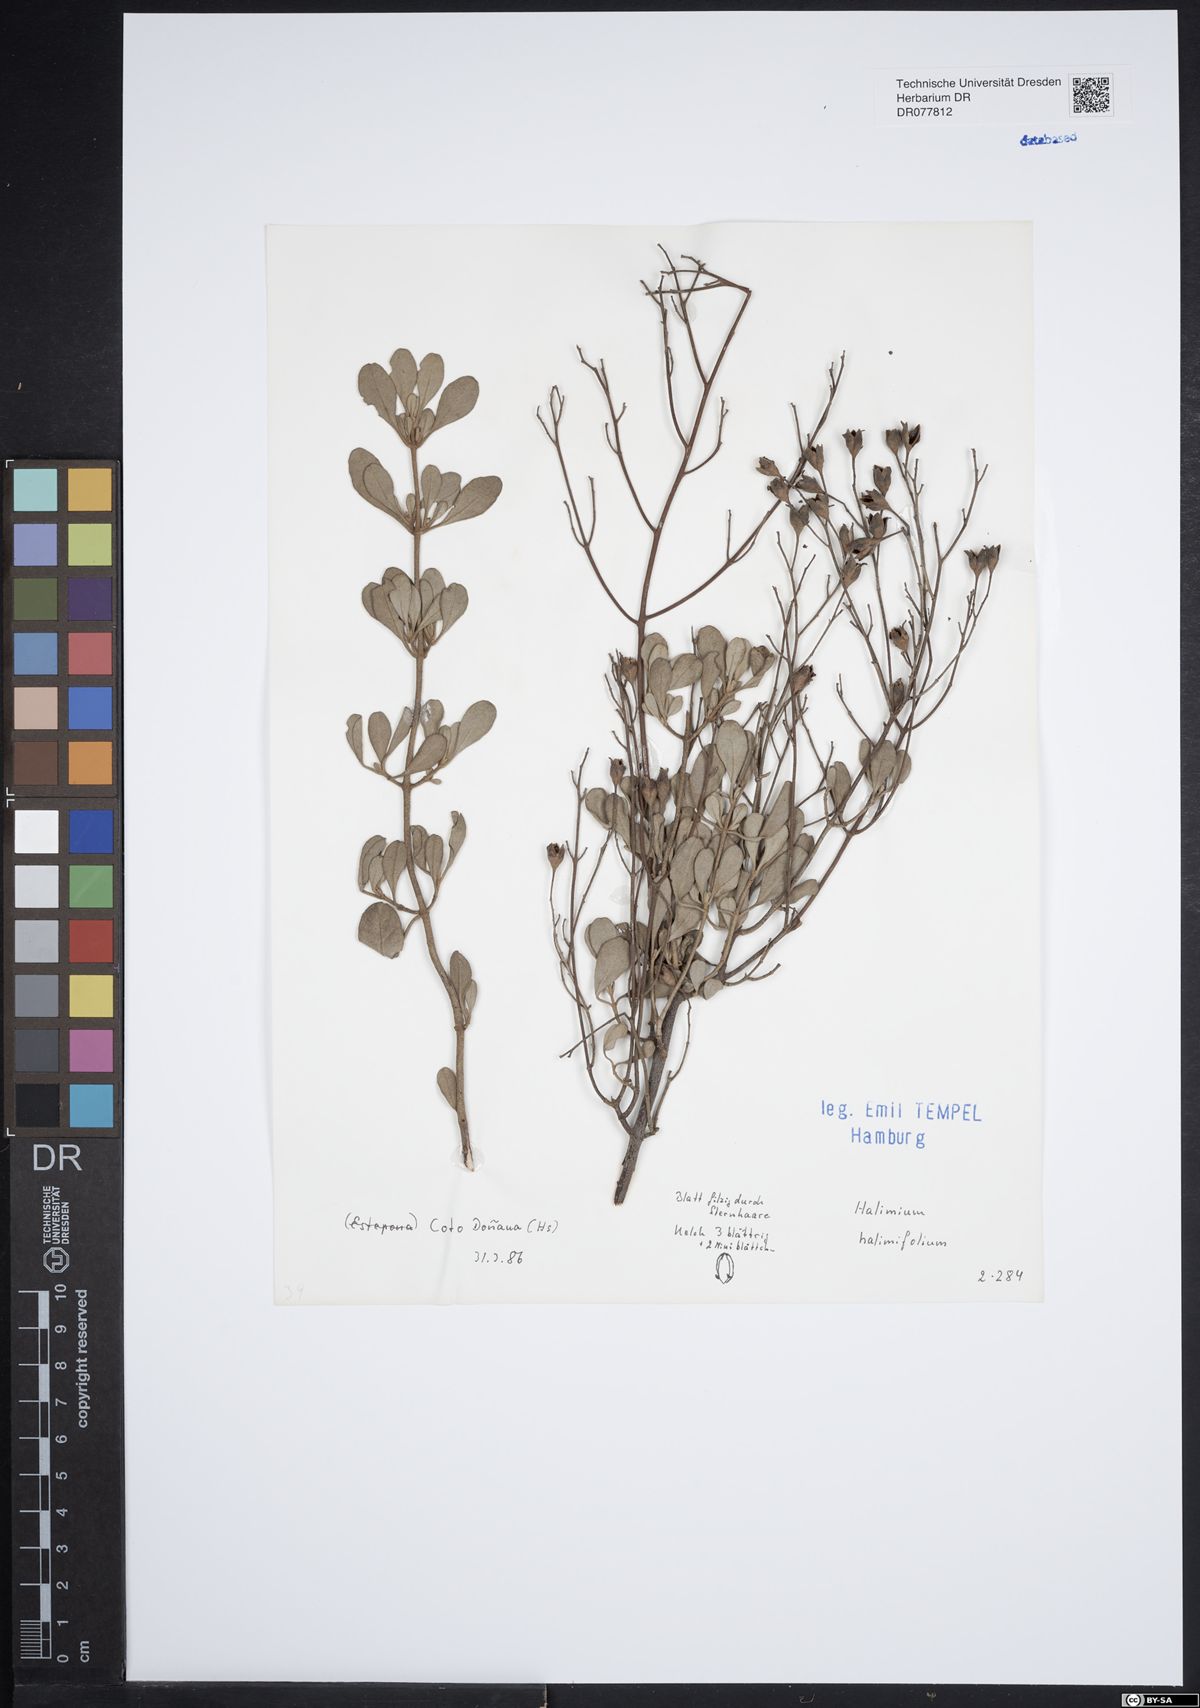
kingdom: Plantae
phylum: Tracheophyta
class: Magnoliopsida
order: Malvales
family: Cistaceae
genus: Halimium
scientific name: Halimium halimifolium
